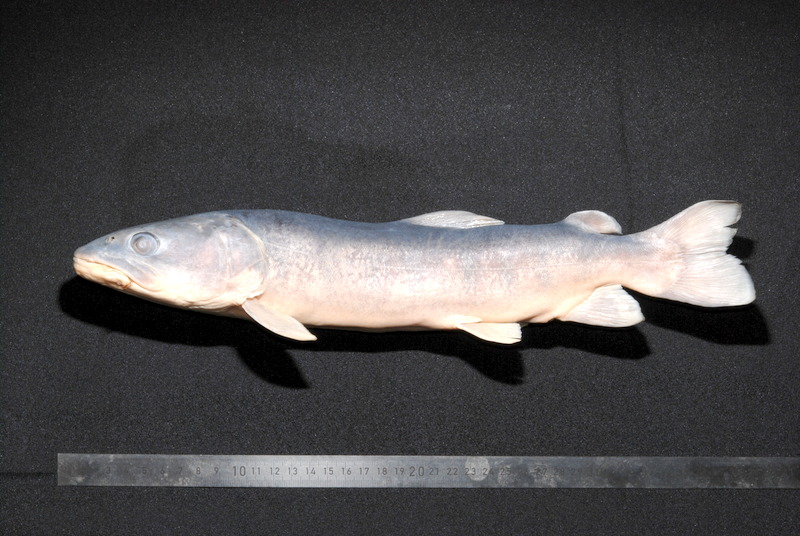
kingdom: Animalia
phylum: Chordata
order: Salmoniformes
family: Salmonidae
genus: Hucho
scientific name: Hucho hucho
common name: Huchen (danube salmon)
